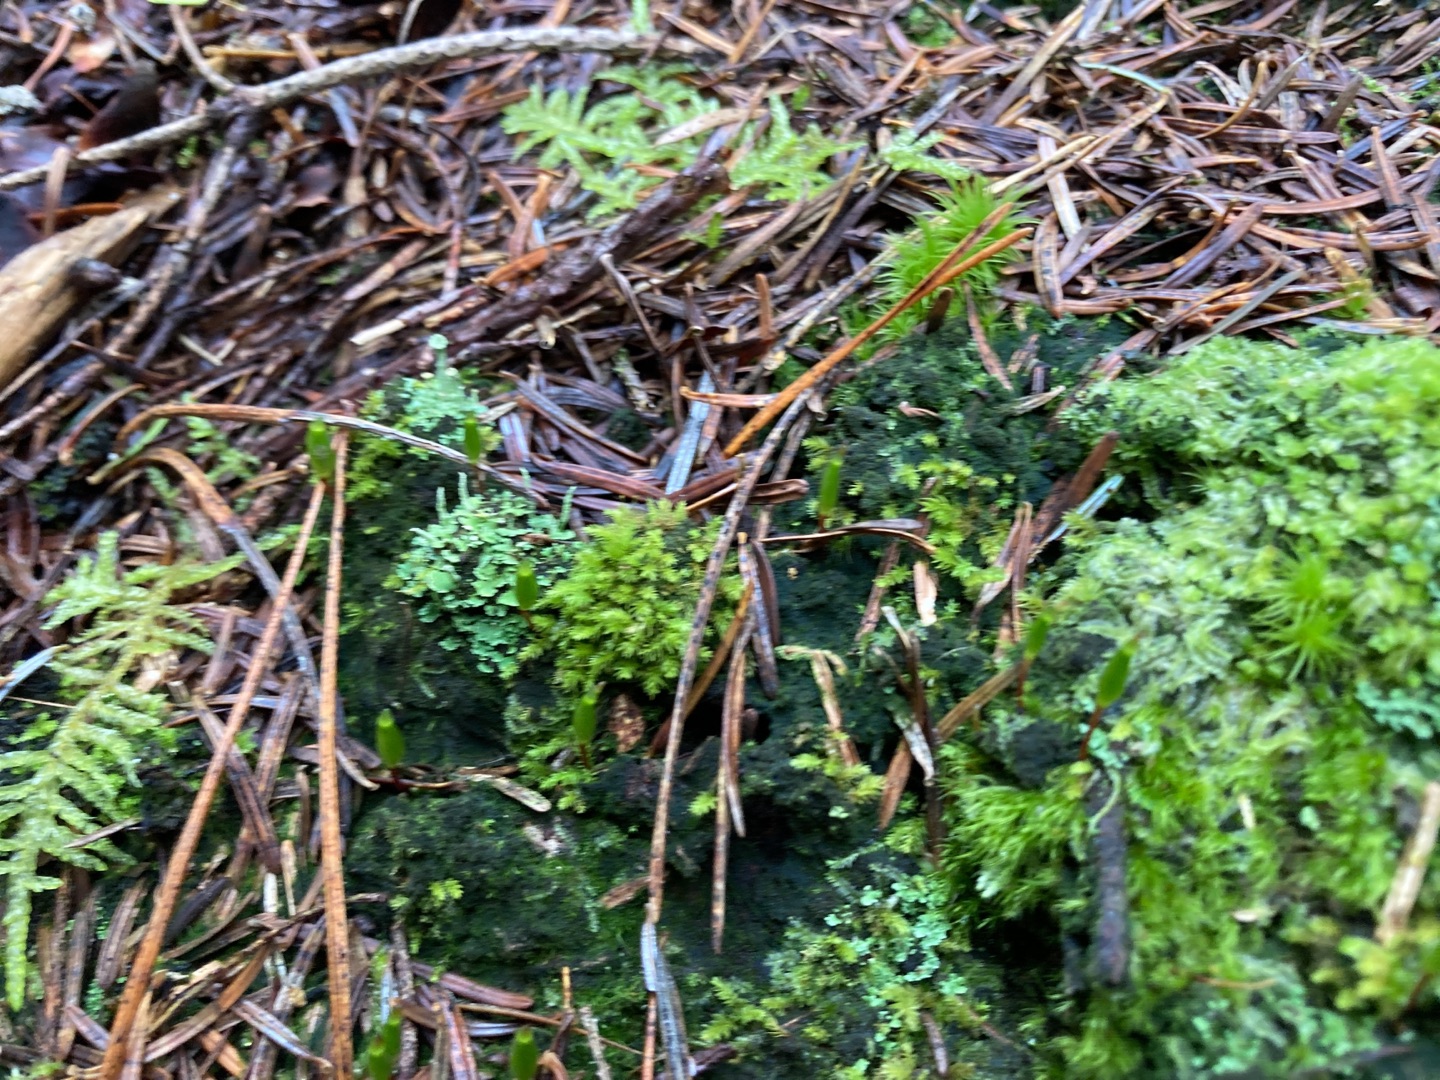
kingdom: Plantae
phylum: Bryophyta
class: Bryopsida
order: Buxbaumiales
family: Buxbaumiaceae
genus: Buxbaumia
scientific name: Buxbaumia viridis
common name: Grøn buxbaumia
